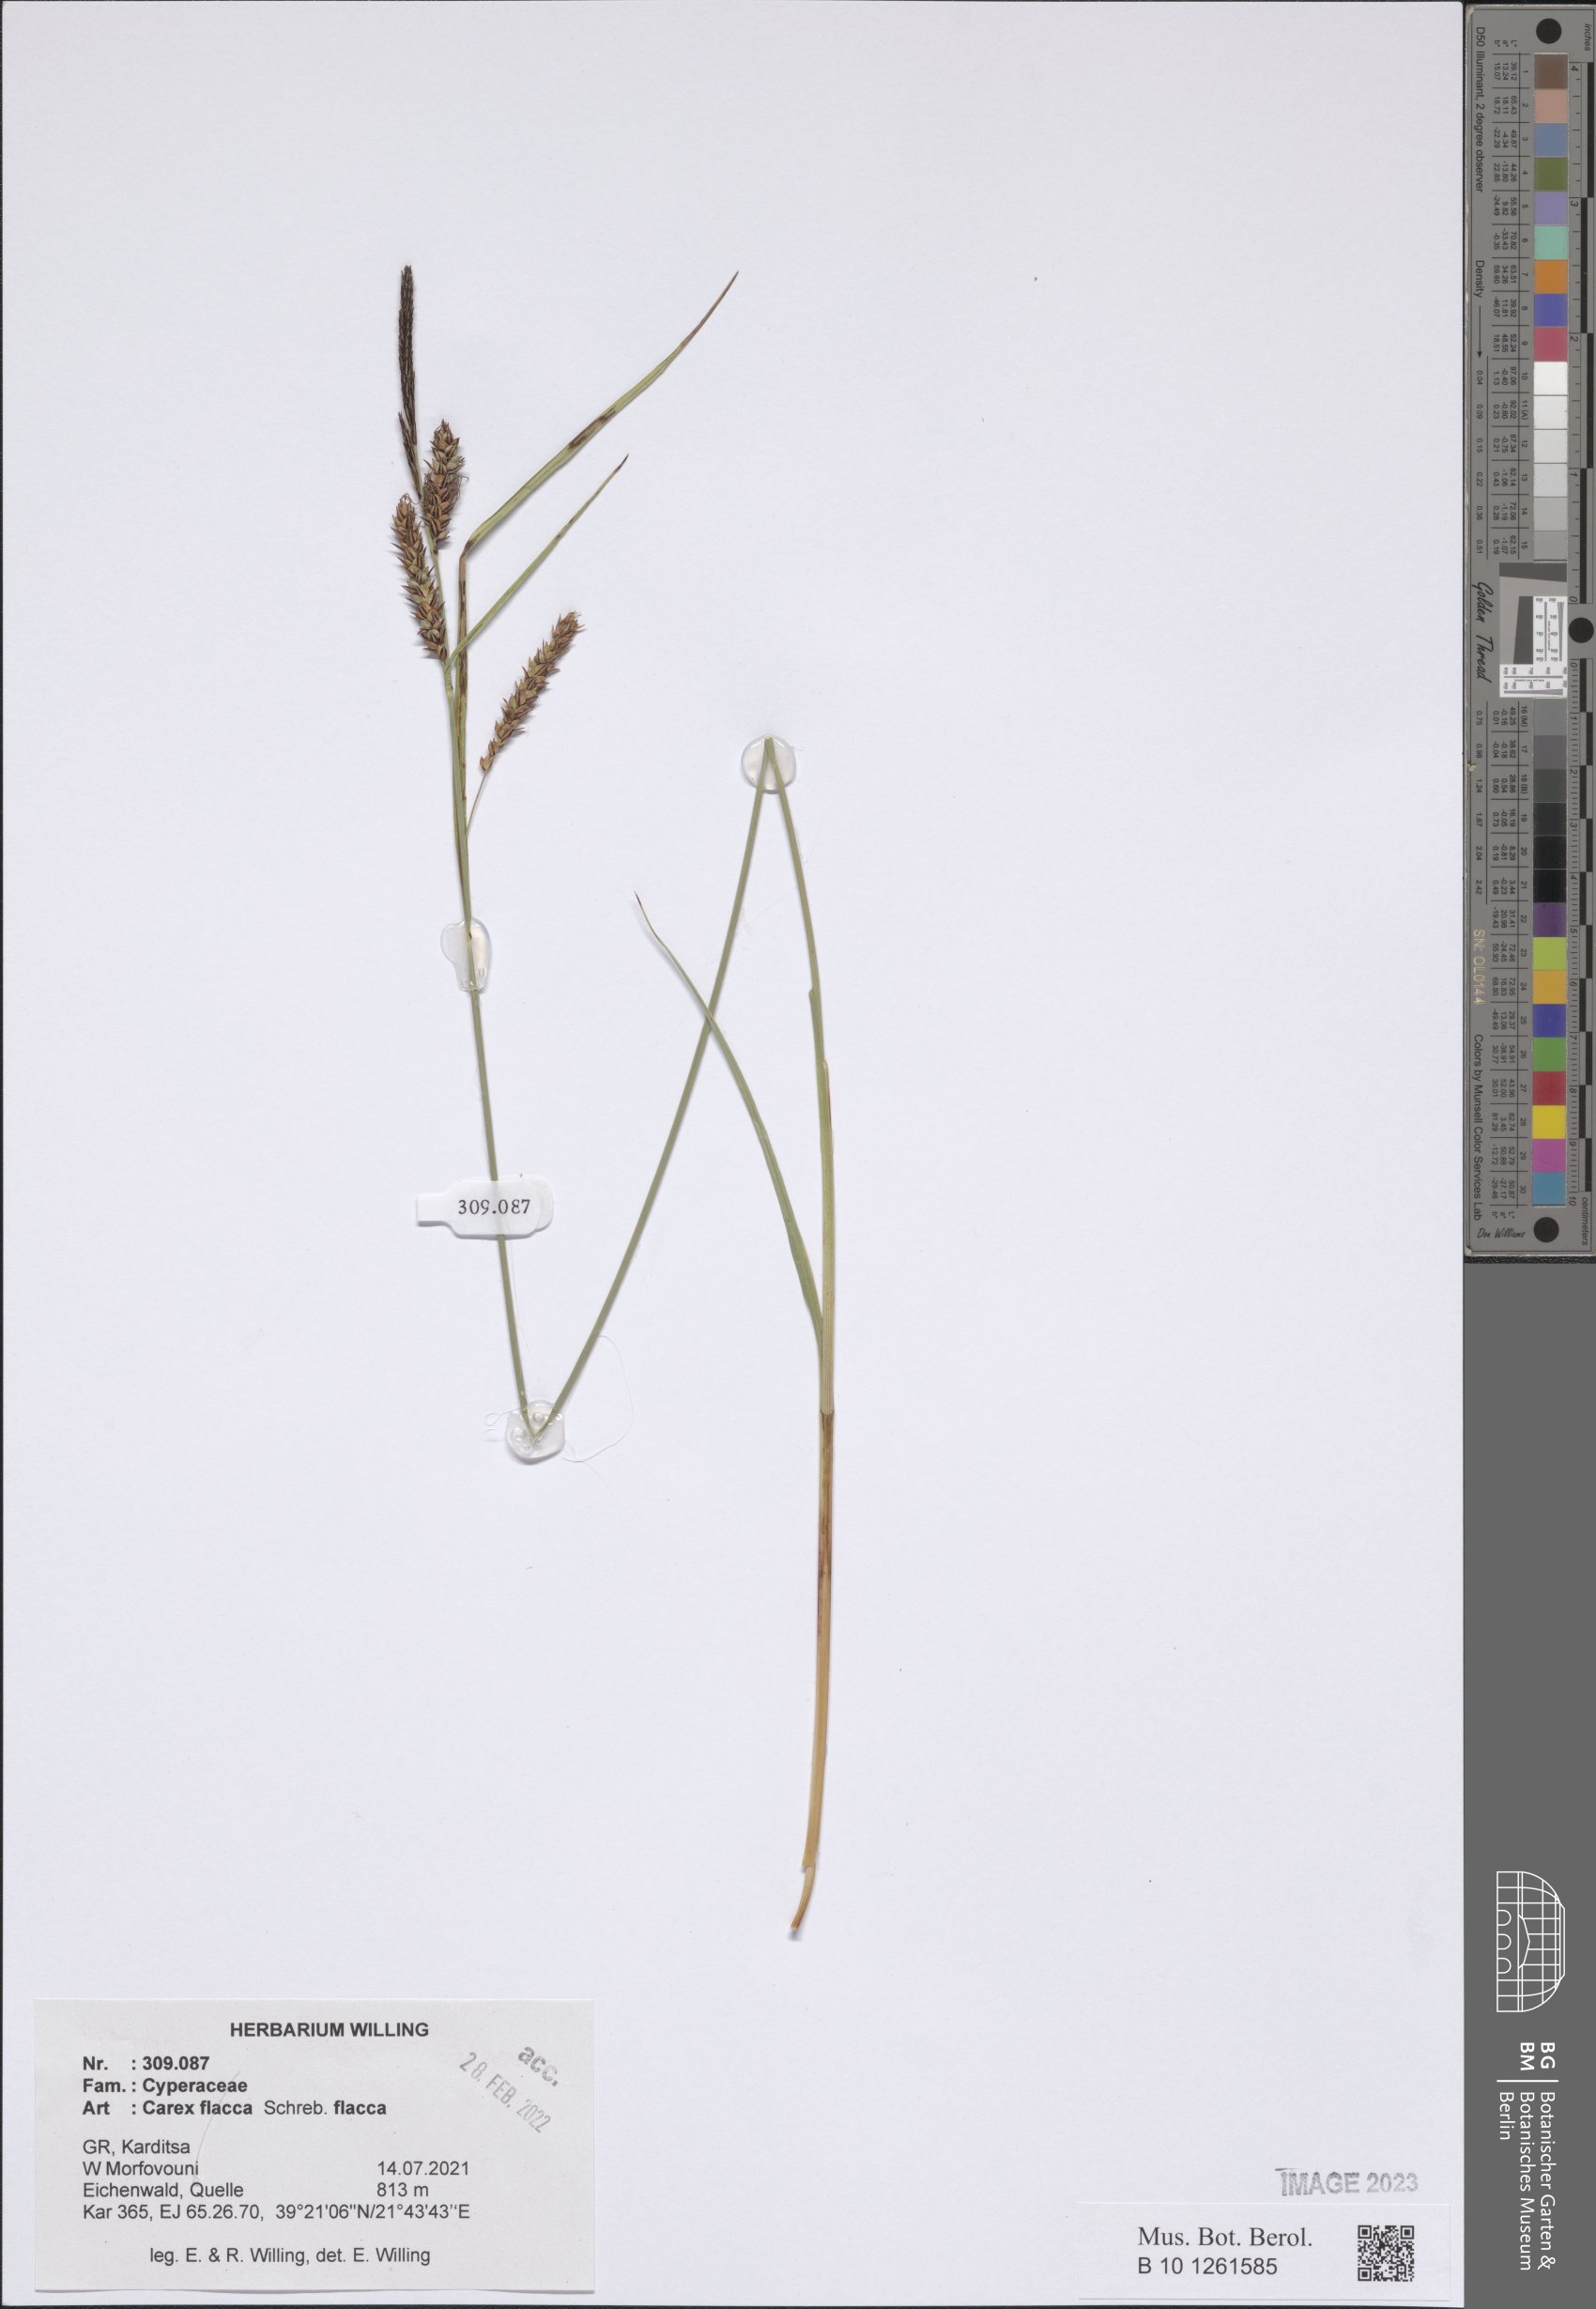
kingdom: Plantae
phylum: Tracheophyta
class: Liliopsida
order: Poales
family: Cyperaceae
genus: Carex
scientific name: Carex distans
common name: Distant sedge
